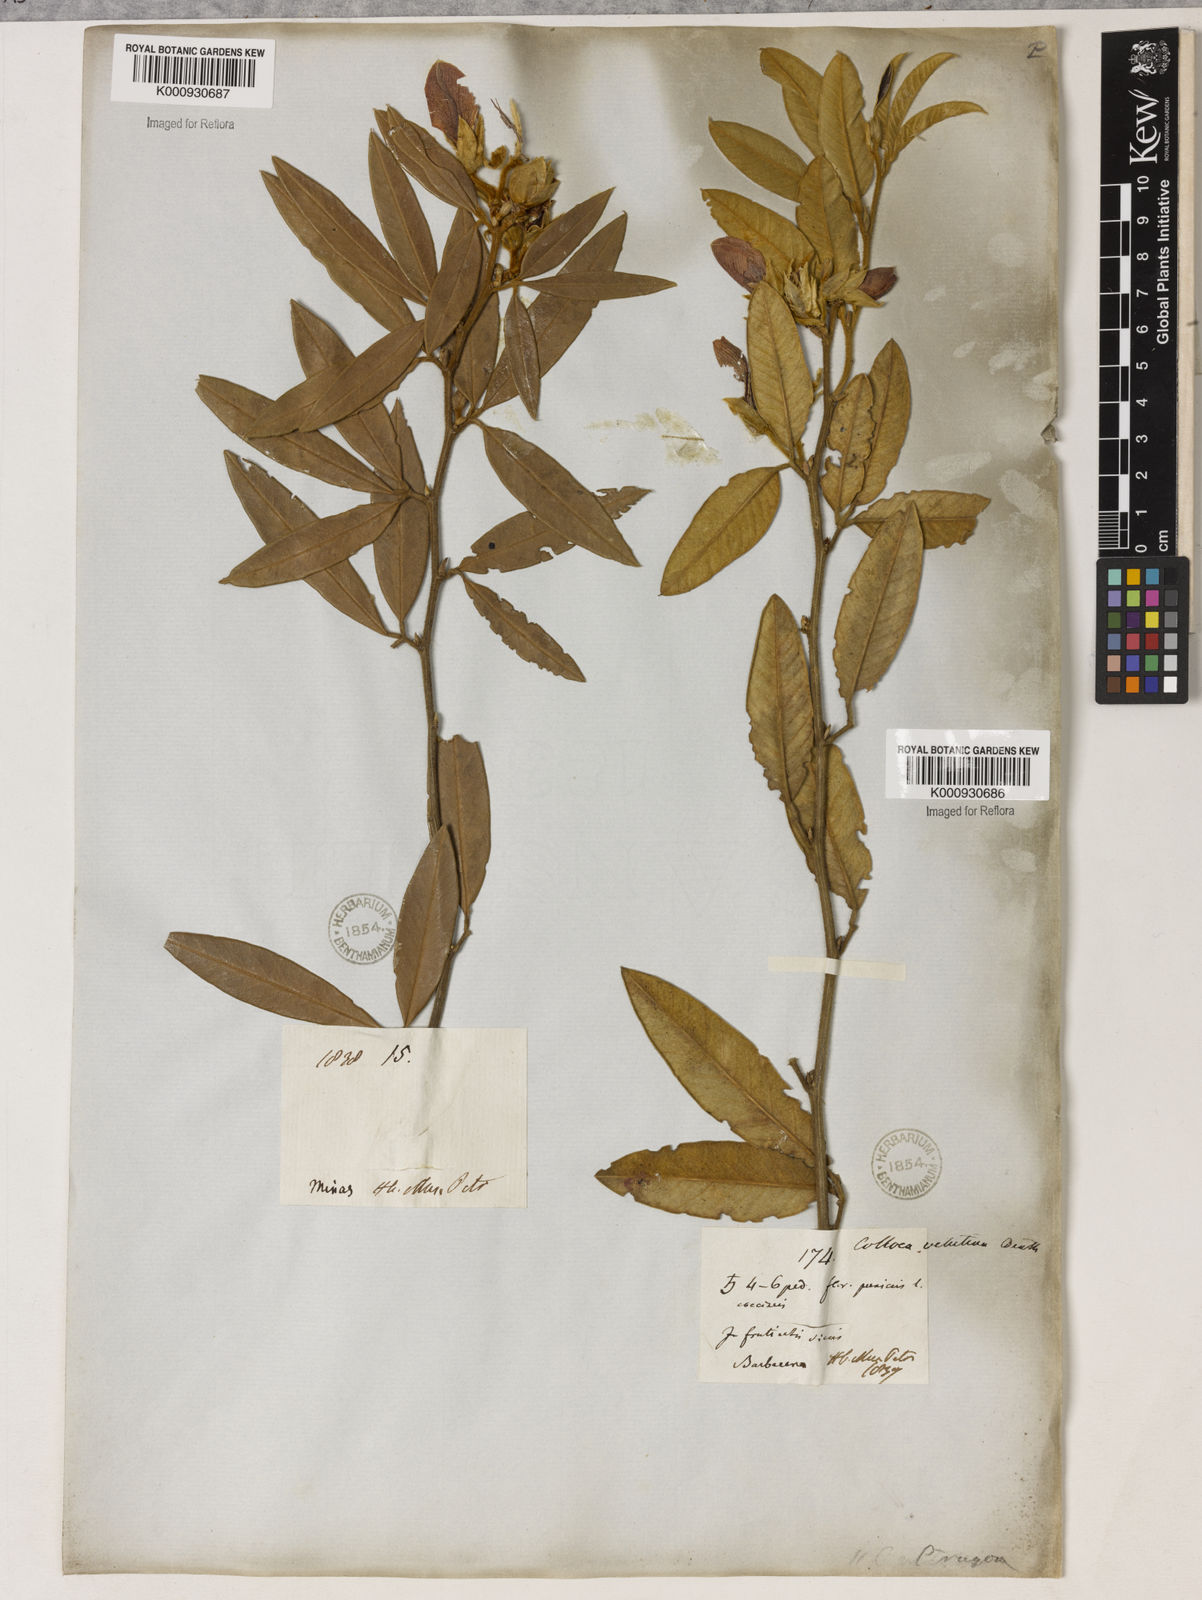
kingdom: Plantae
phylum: Tracheophyta
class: Magnoliopsida
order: Lamiales
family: Lamiaceae
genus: Coleus
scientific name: Coleus barbatus
